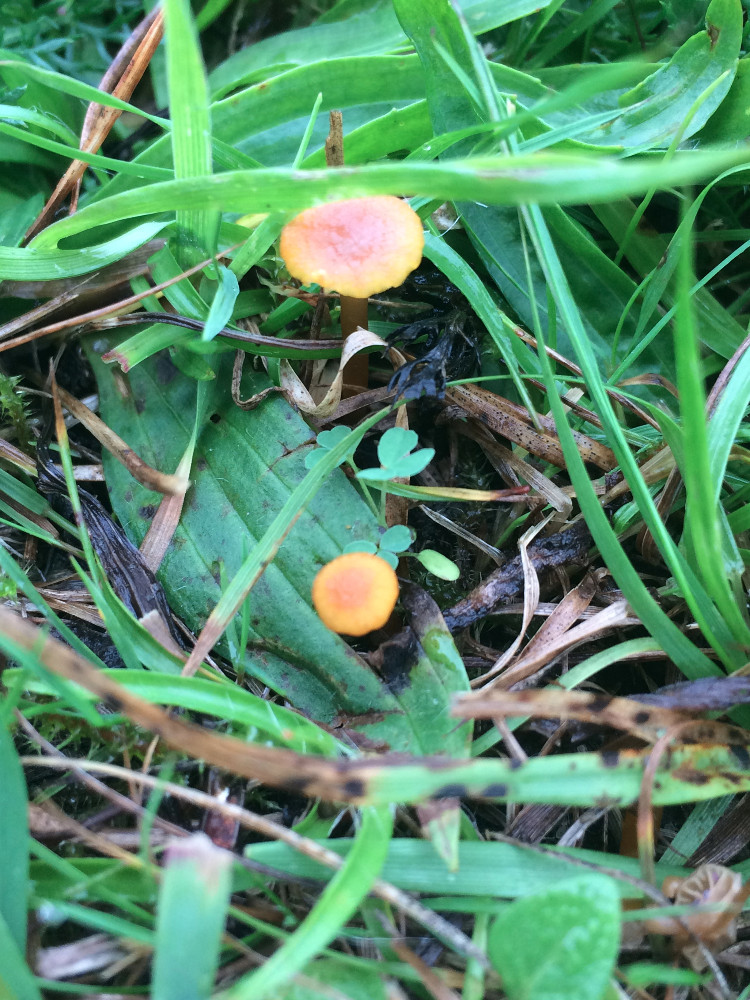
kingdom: Fungi
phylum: Basidiomycota
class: Agaricomycetes
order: Agaricales
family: Hygrophoraceae
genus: Hygrocybe
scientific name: Hygrocybe cantharellus
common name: kantarel-vokshat
